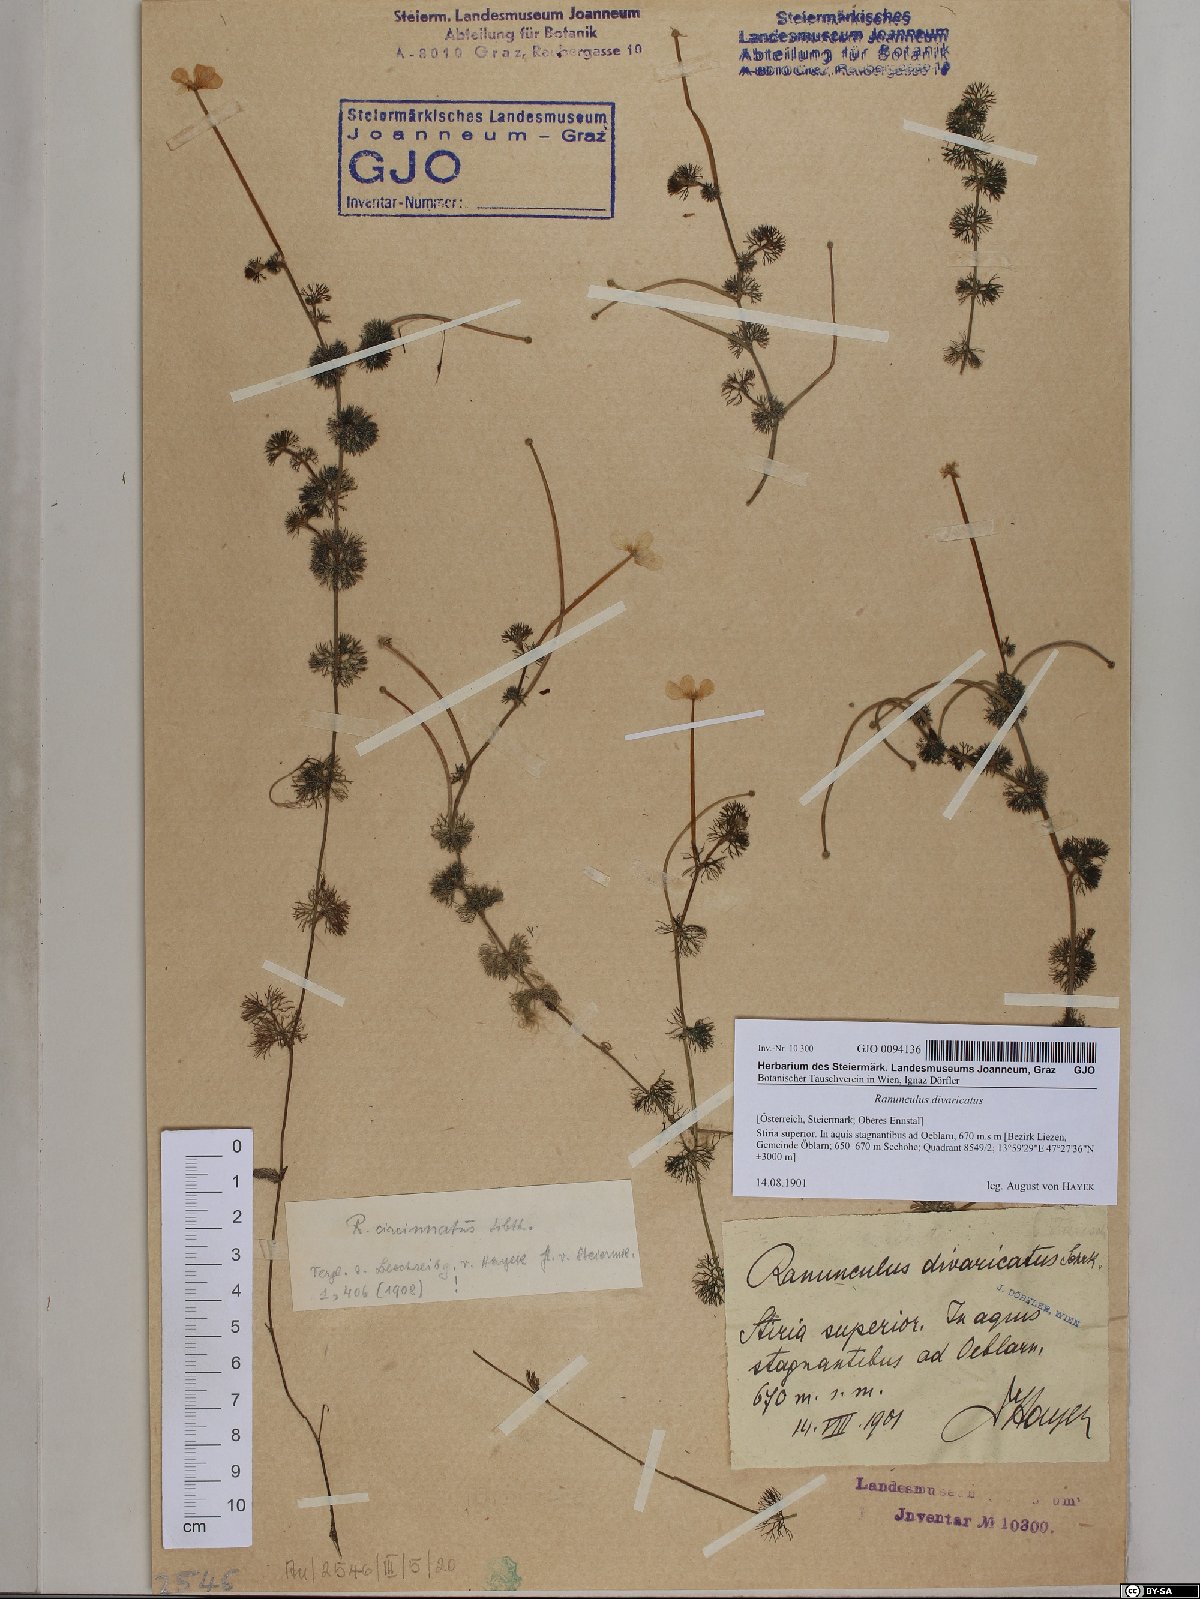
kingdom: Plantae
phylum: Tracheophyta
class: Magnoliopsida
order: Ranunculales
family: Ranunculaceae
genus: Ranunculus
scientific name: Ranunculus circinatus
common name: Fan-leaved water-crowfoot
